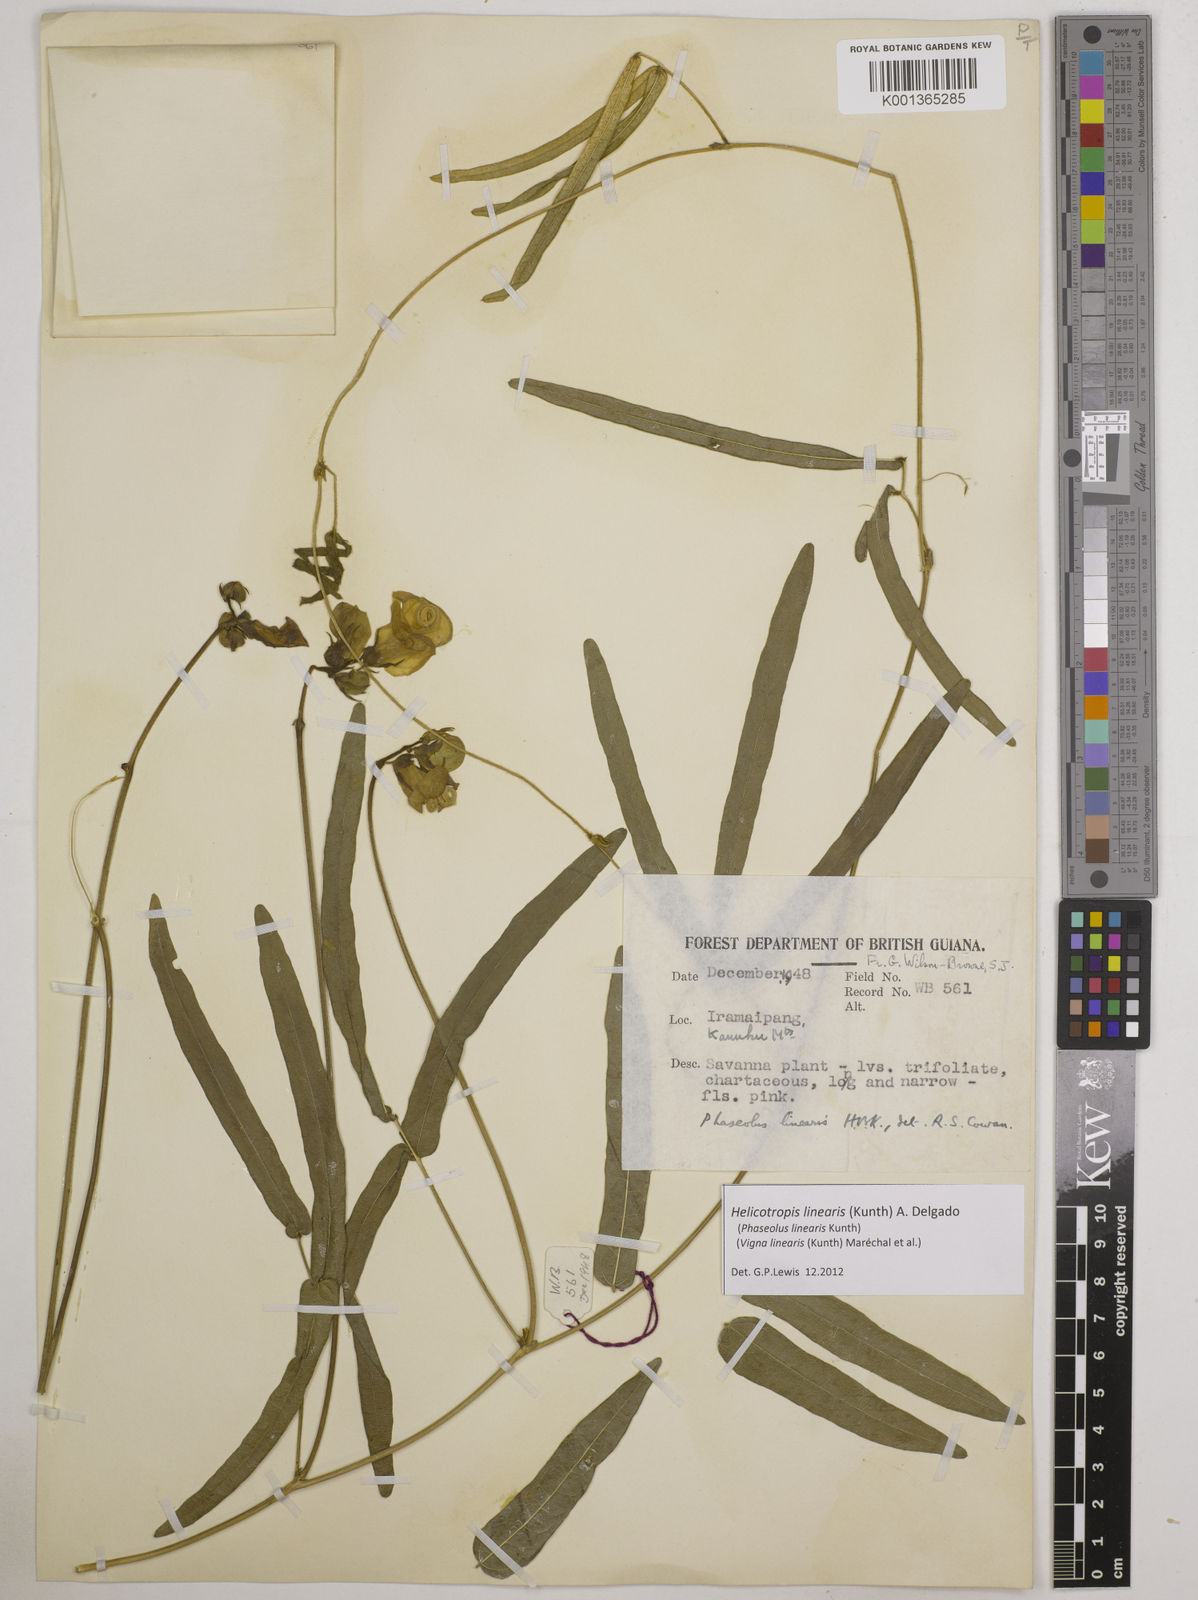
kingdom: Plantae
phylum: Tracheophyta
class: Magnoliopsida
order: Fabales
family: Fabaceae
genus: Helicotropis
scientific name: Helicotropis linearis
